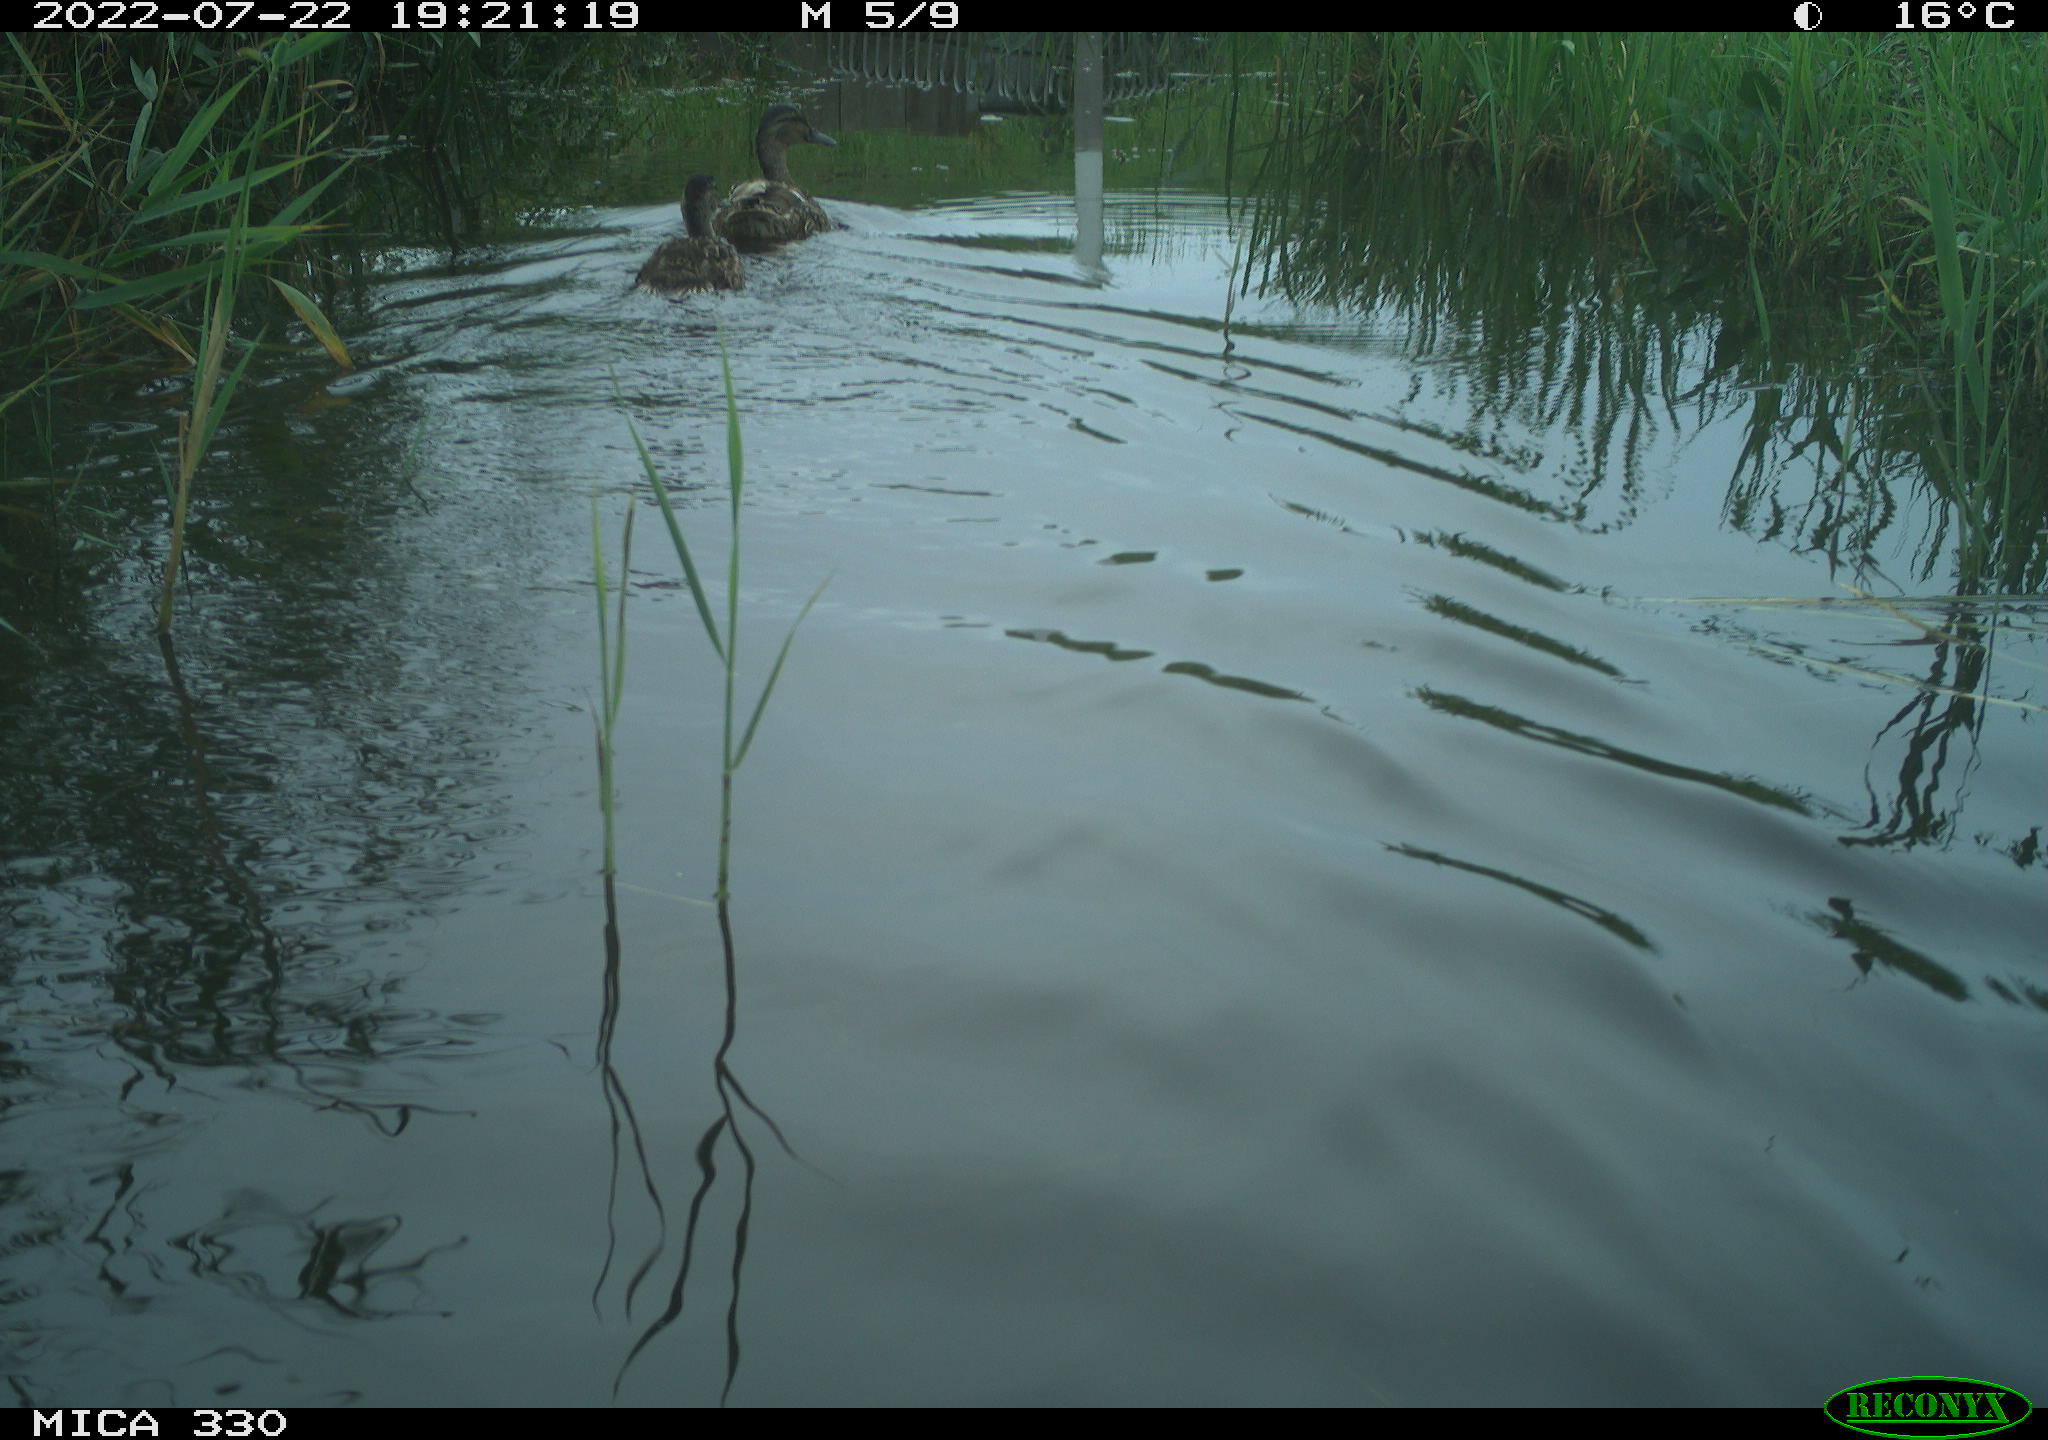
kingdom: Animalia
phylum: Chordata
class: Aves
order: Anseriformes
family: Anatidae
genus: Anas
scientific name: Anas platyrhynchos
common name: Mallard
